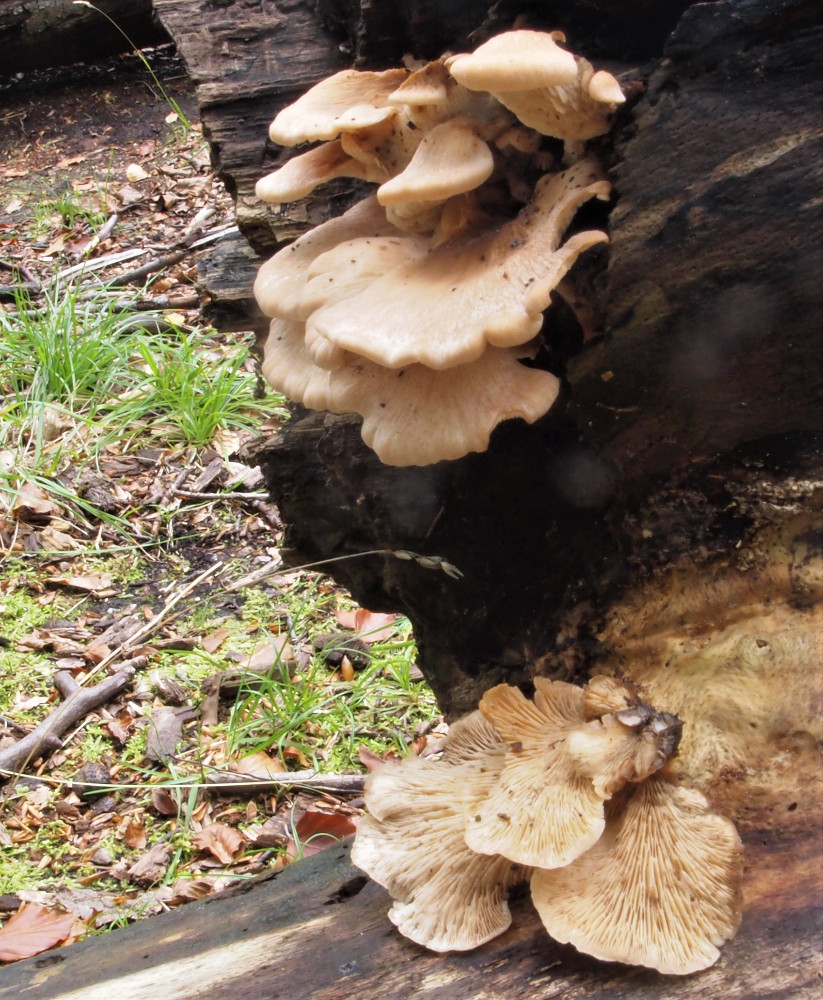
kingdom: Fungi
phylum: Basidiomycota
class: Agaricomycetes
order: Russulales
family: Auriscalpiaceae
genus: Lentinellus
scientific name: Lentinellus ursinus
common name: børstehåret savbladhat
